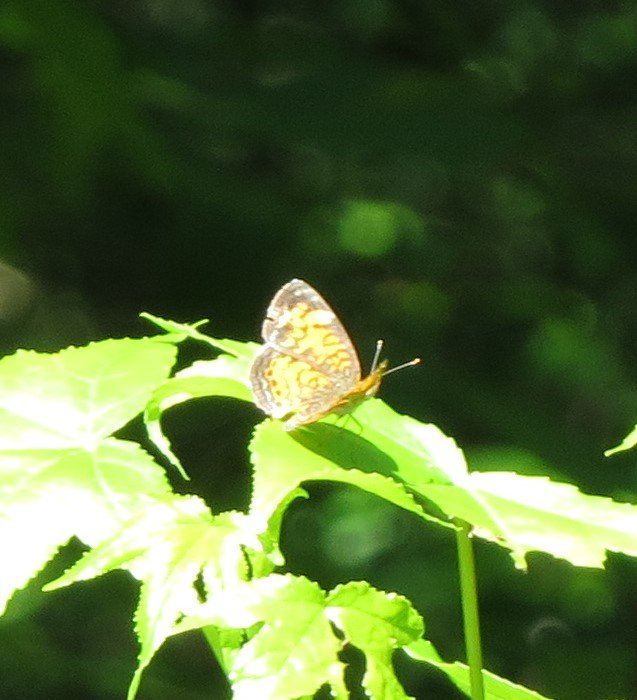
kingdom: Animalia
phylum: Arthropoda
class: Insecta
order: Lepidoptera
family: Nymphalidae
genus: Phyciodes
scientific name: Phyciodes tharos
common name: Pearl Crescent
